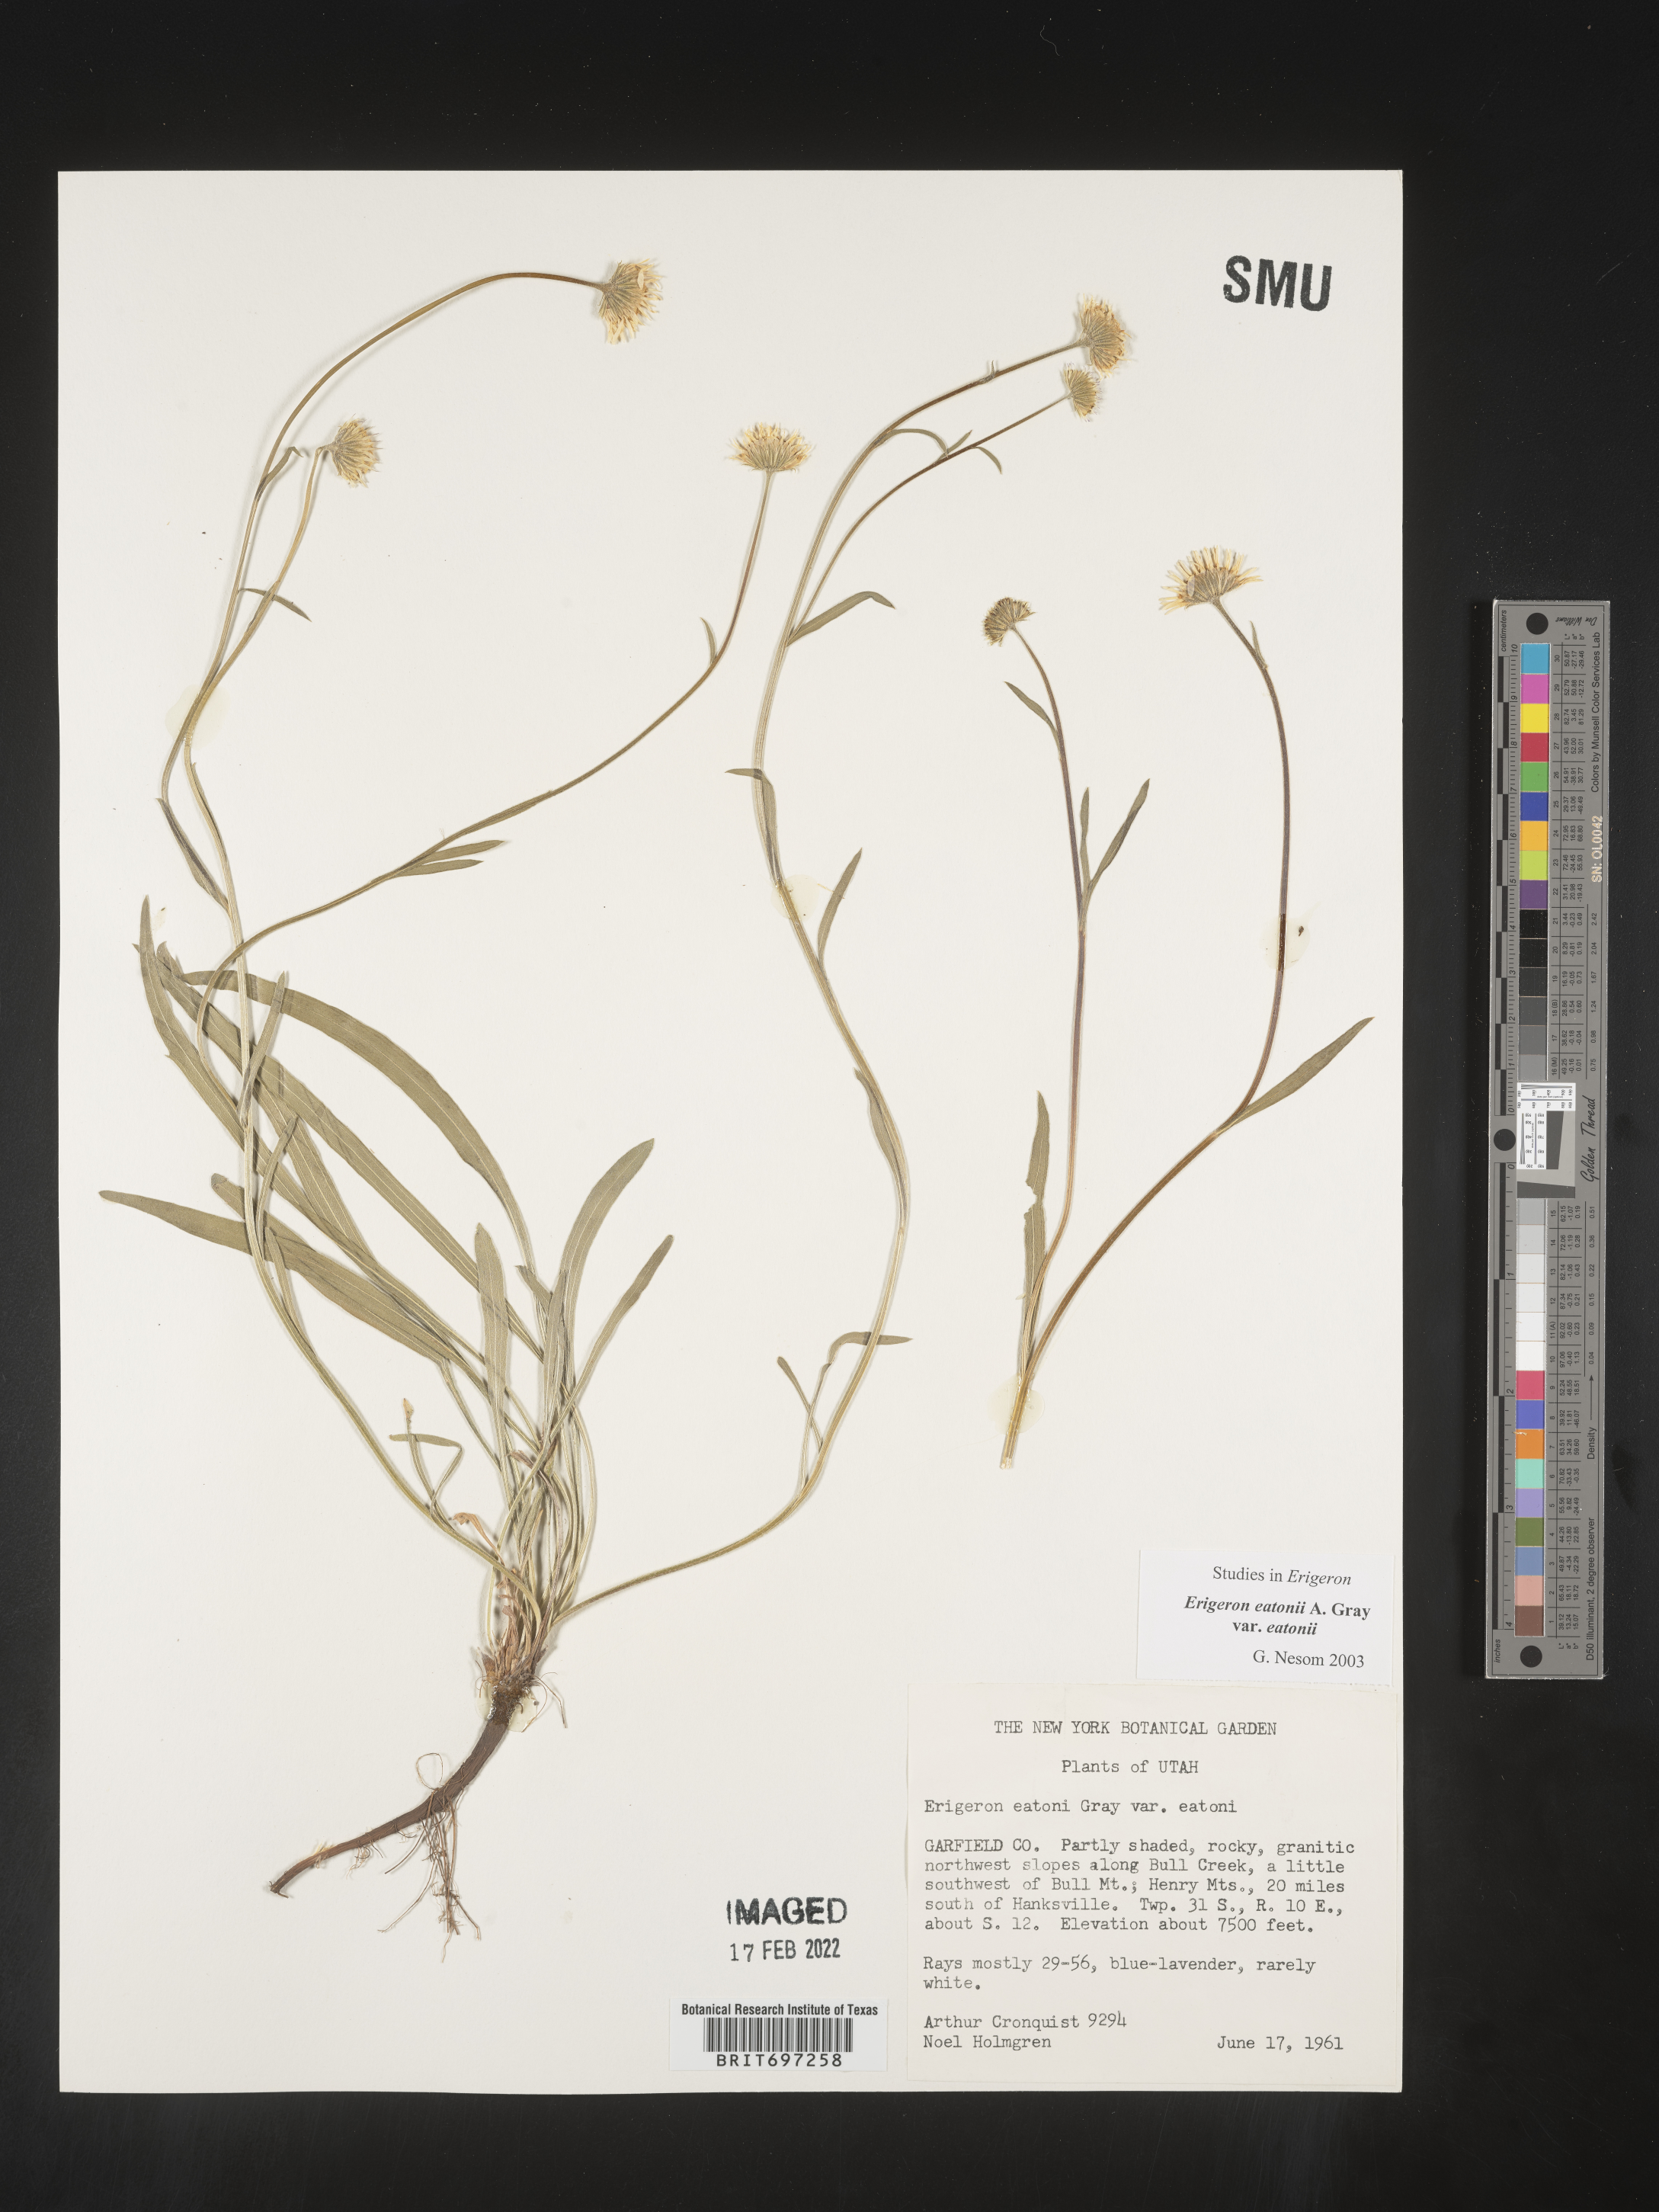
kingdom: Plantae
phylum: Tracheophyta
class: Magnoliopsida
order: Asterales
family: Asteraceae
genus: Erigeron
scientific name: Erigeron eatonii
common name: Eaton's fleabane
